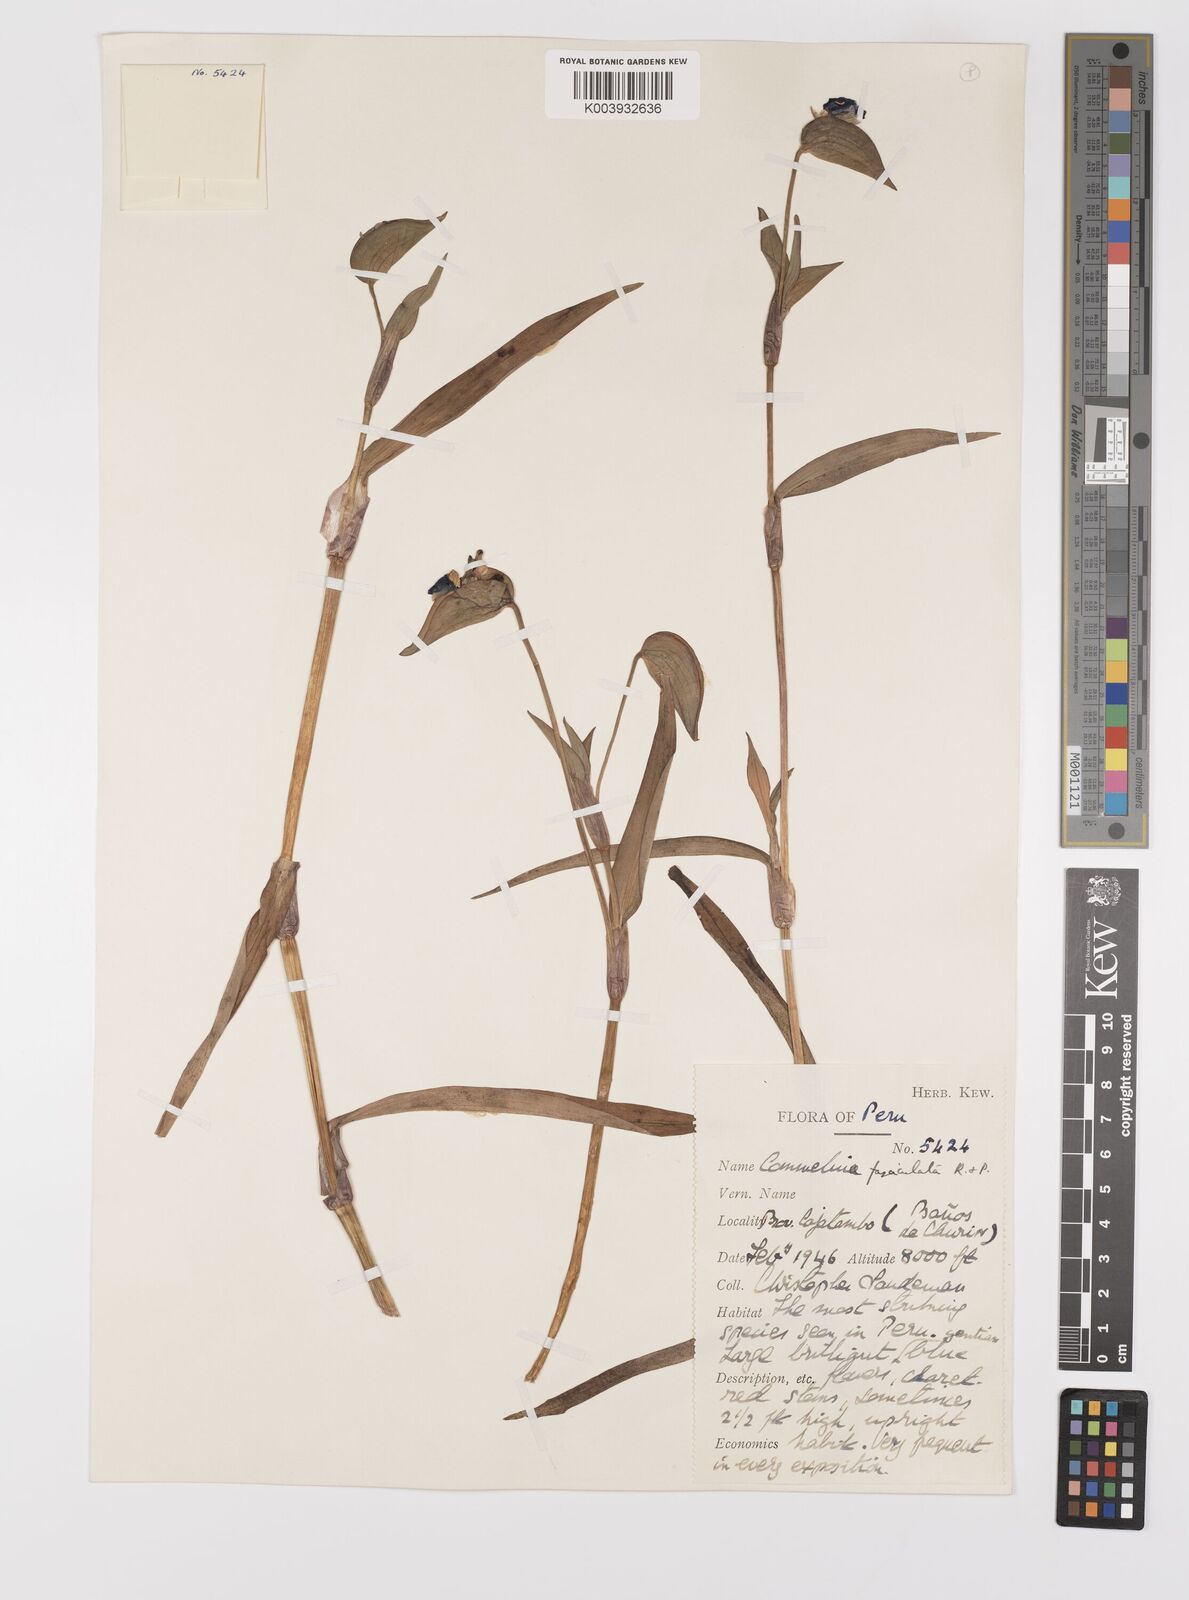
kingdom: Plantae
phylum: Tracheophyta
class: Liliopsida
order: Commelinales
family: Commelinaceae
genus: Commelina
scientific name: Commelina tuberosa
